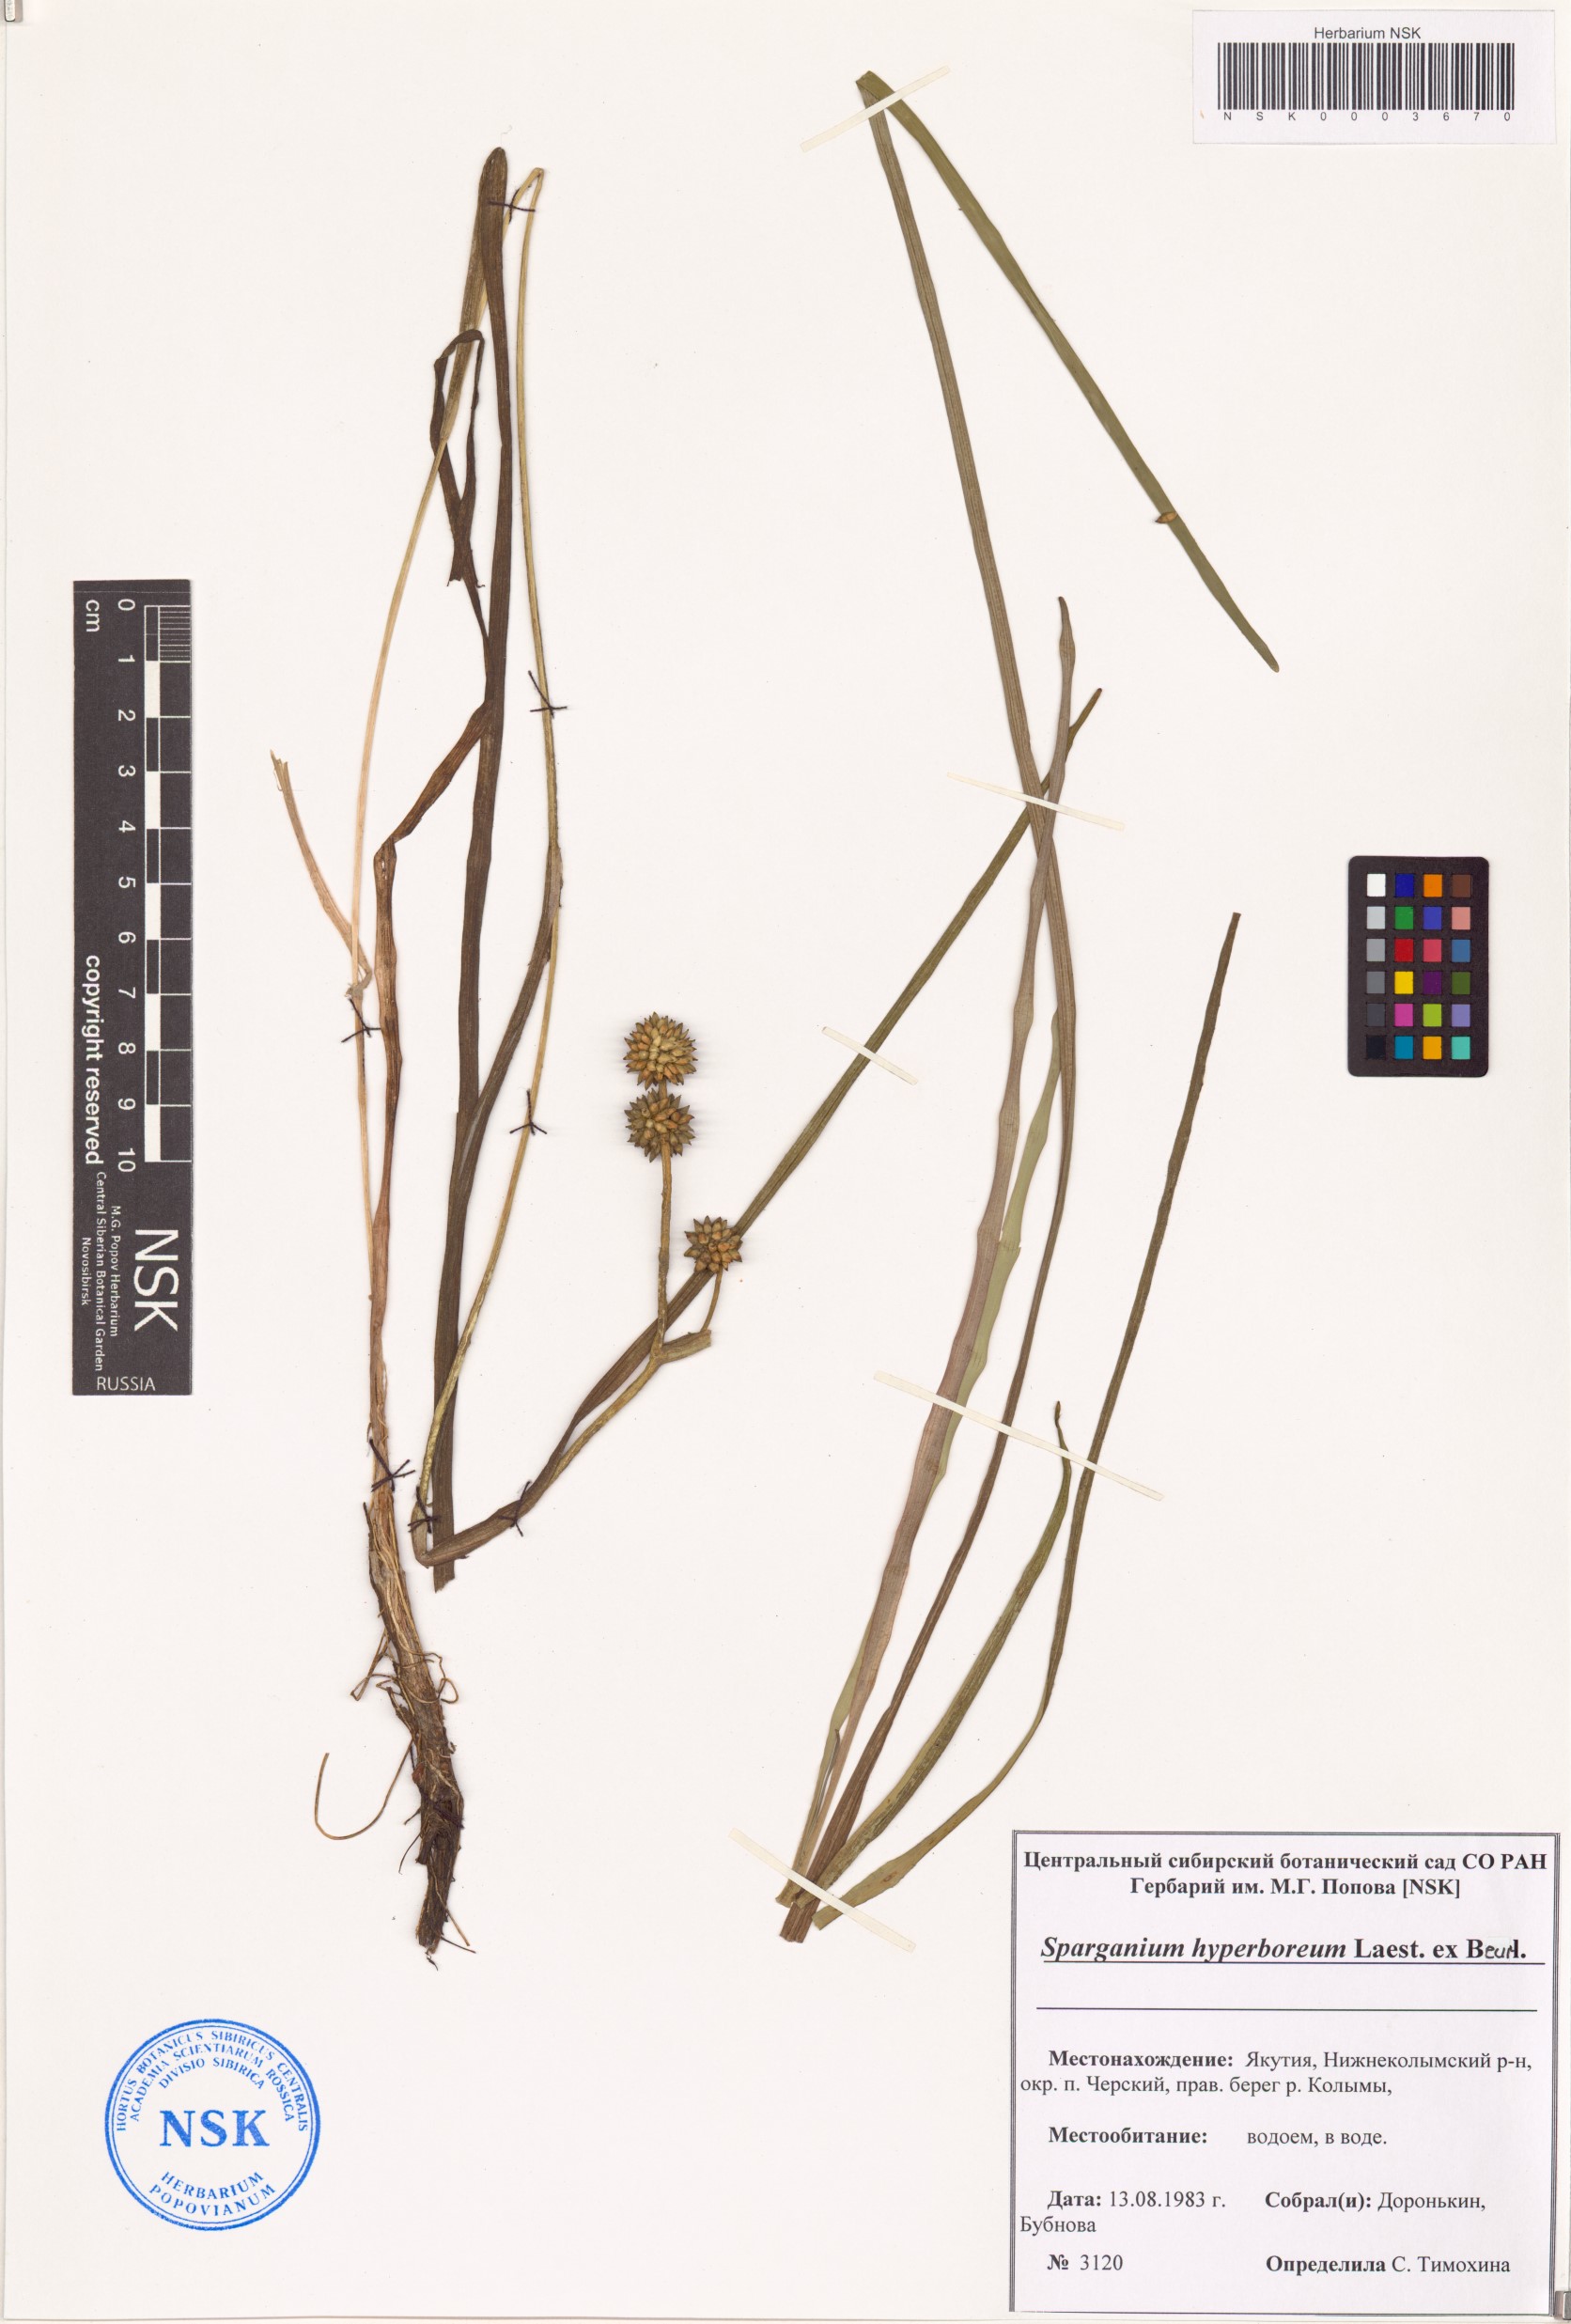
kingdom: Plantae
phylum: Tracheophyta
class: Liliopsida
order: Poales
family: Typhaceae
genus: Sparganium
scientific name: Sparganium hyperboreum
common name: Arctic burreed
